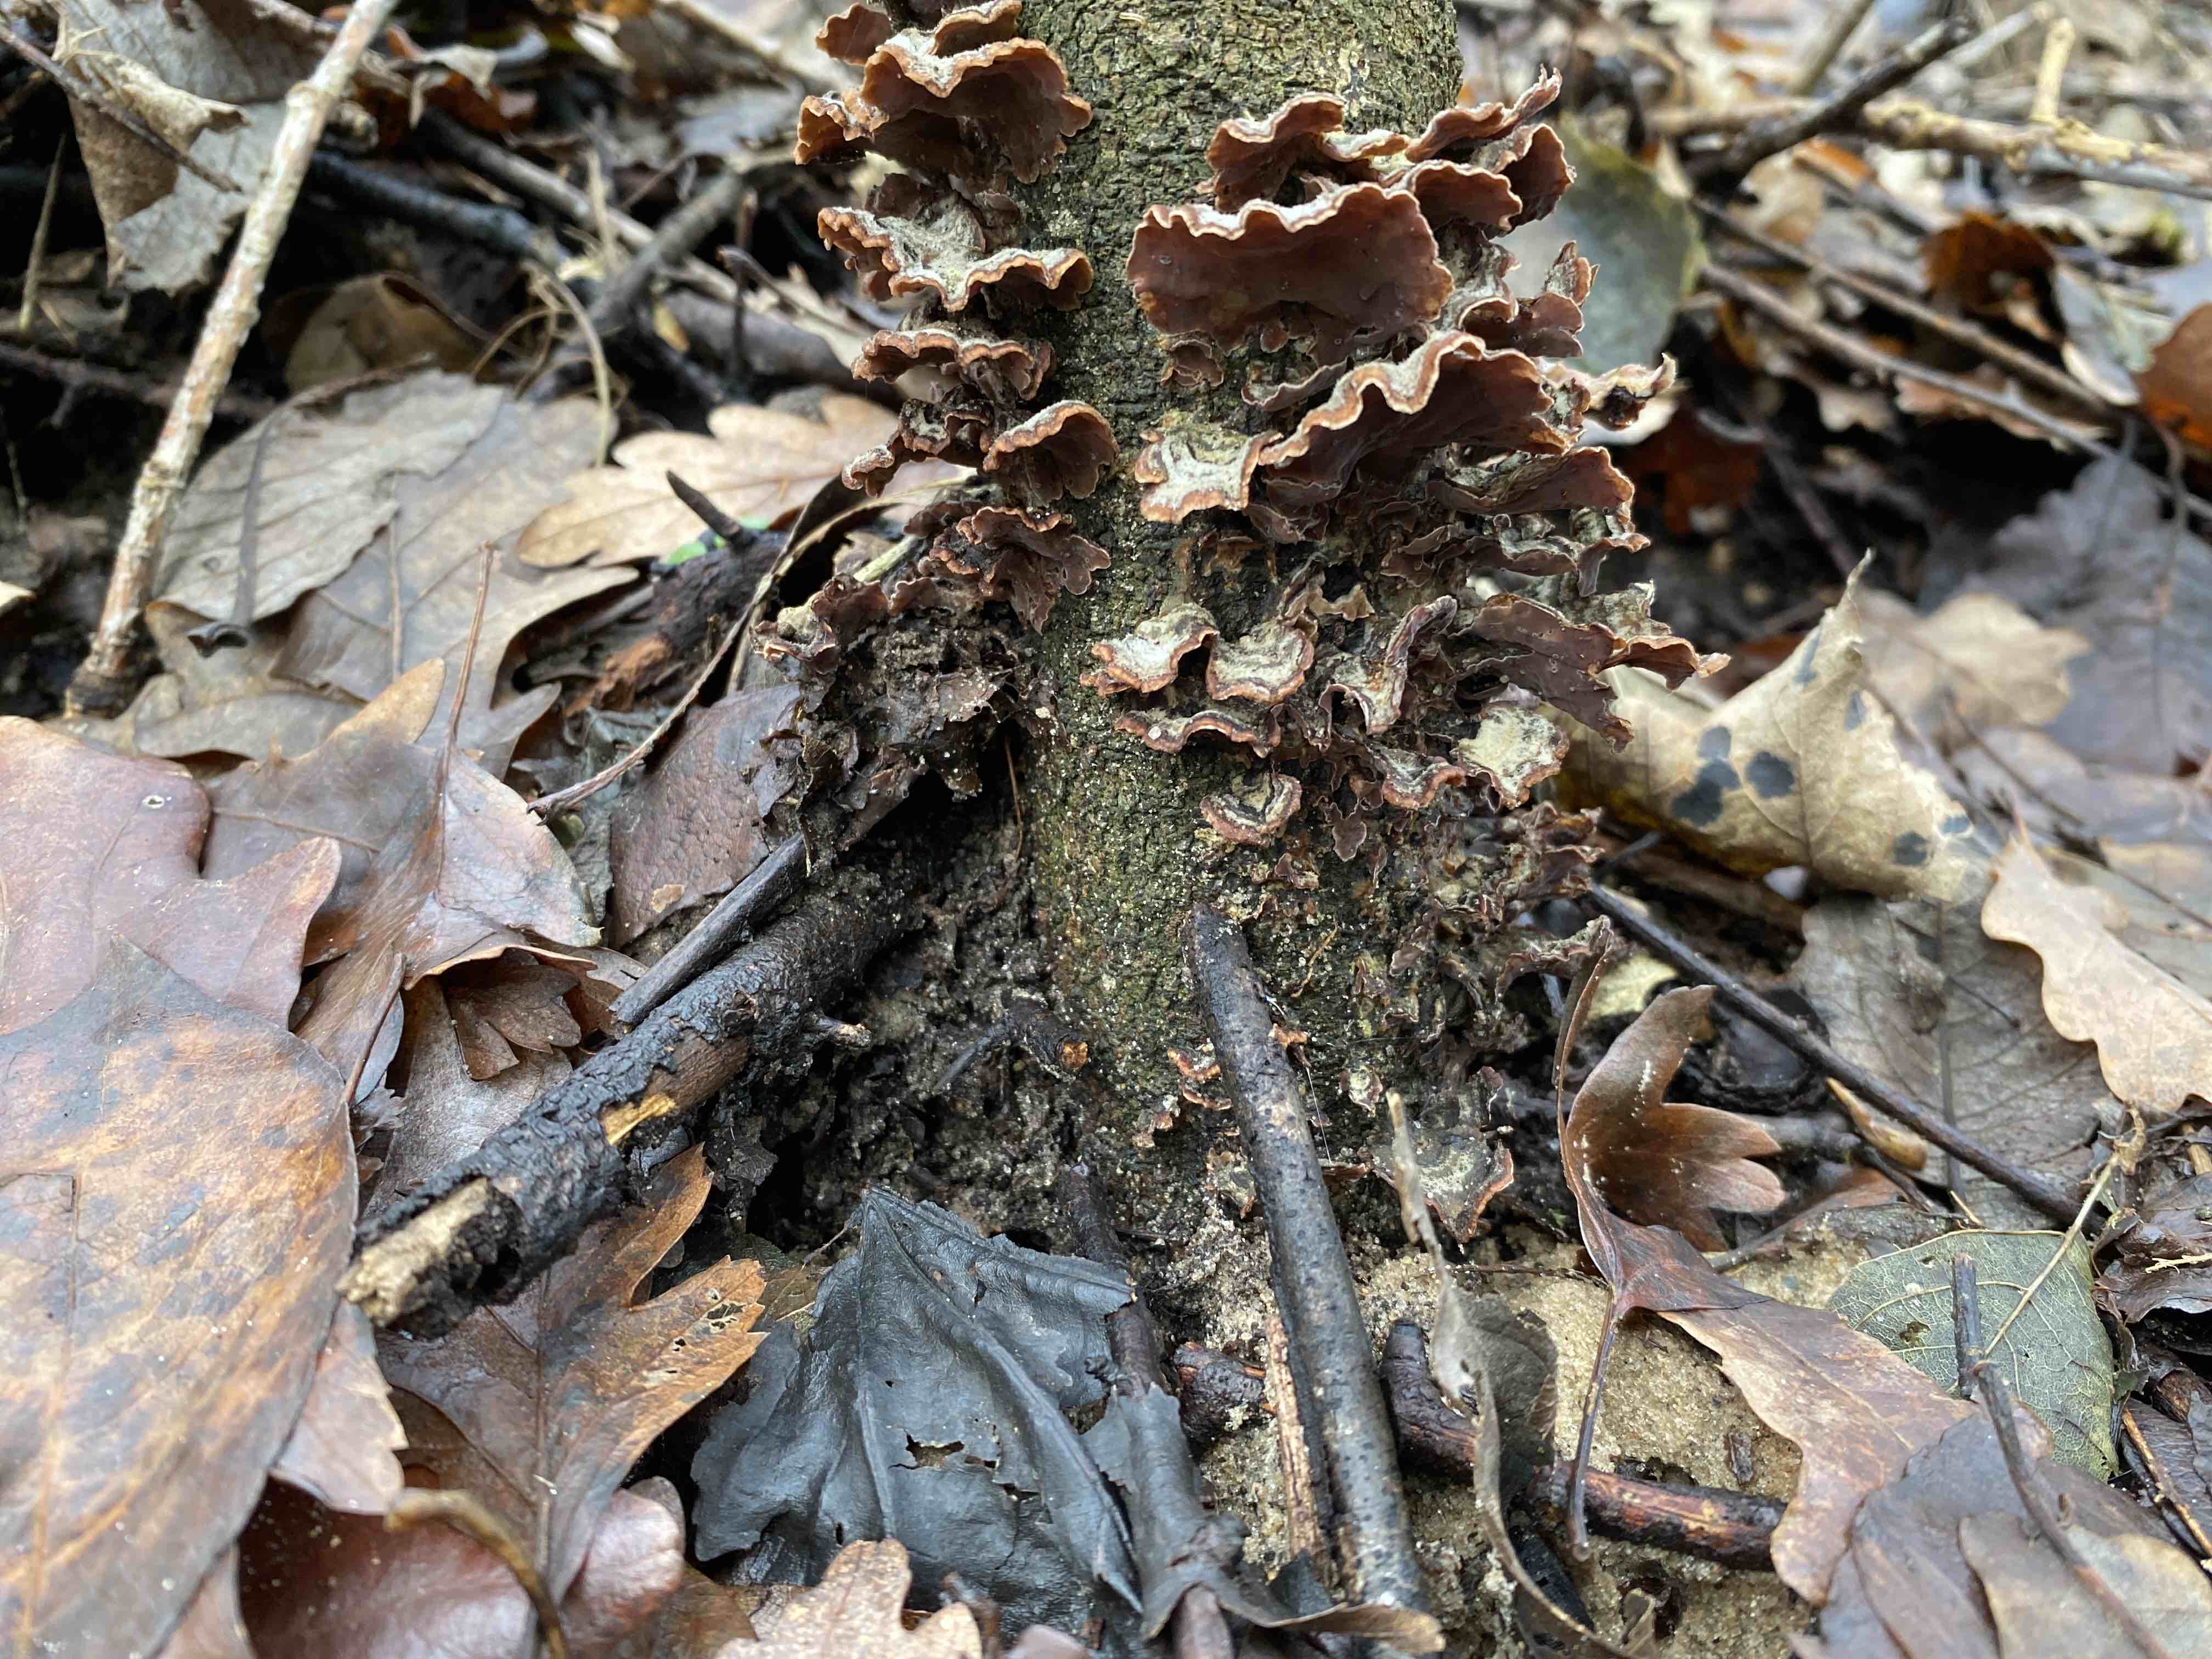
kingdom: Fungi
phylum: Basidiomycota
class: Agaricomycetes
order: Agaricales
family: Cyphellaceae
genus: Chondrostereum
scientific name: Chondrostereum purpureum
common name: purpurlædersvamp
